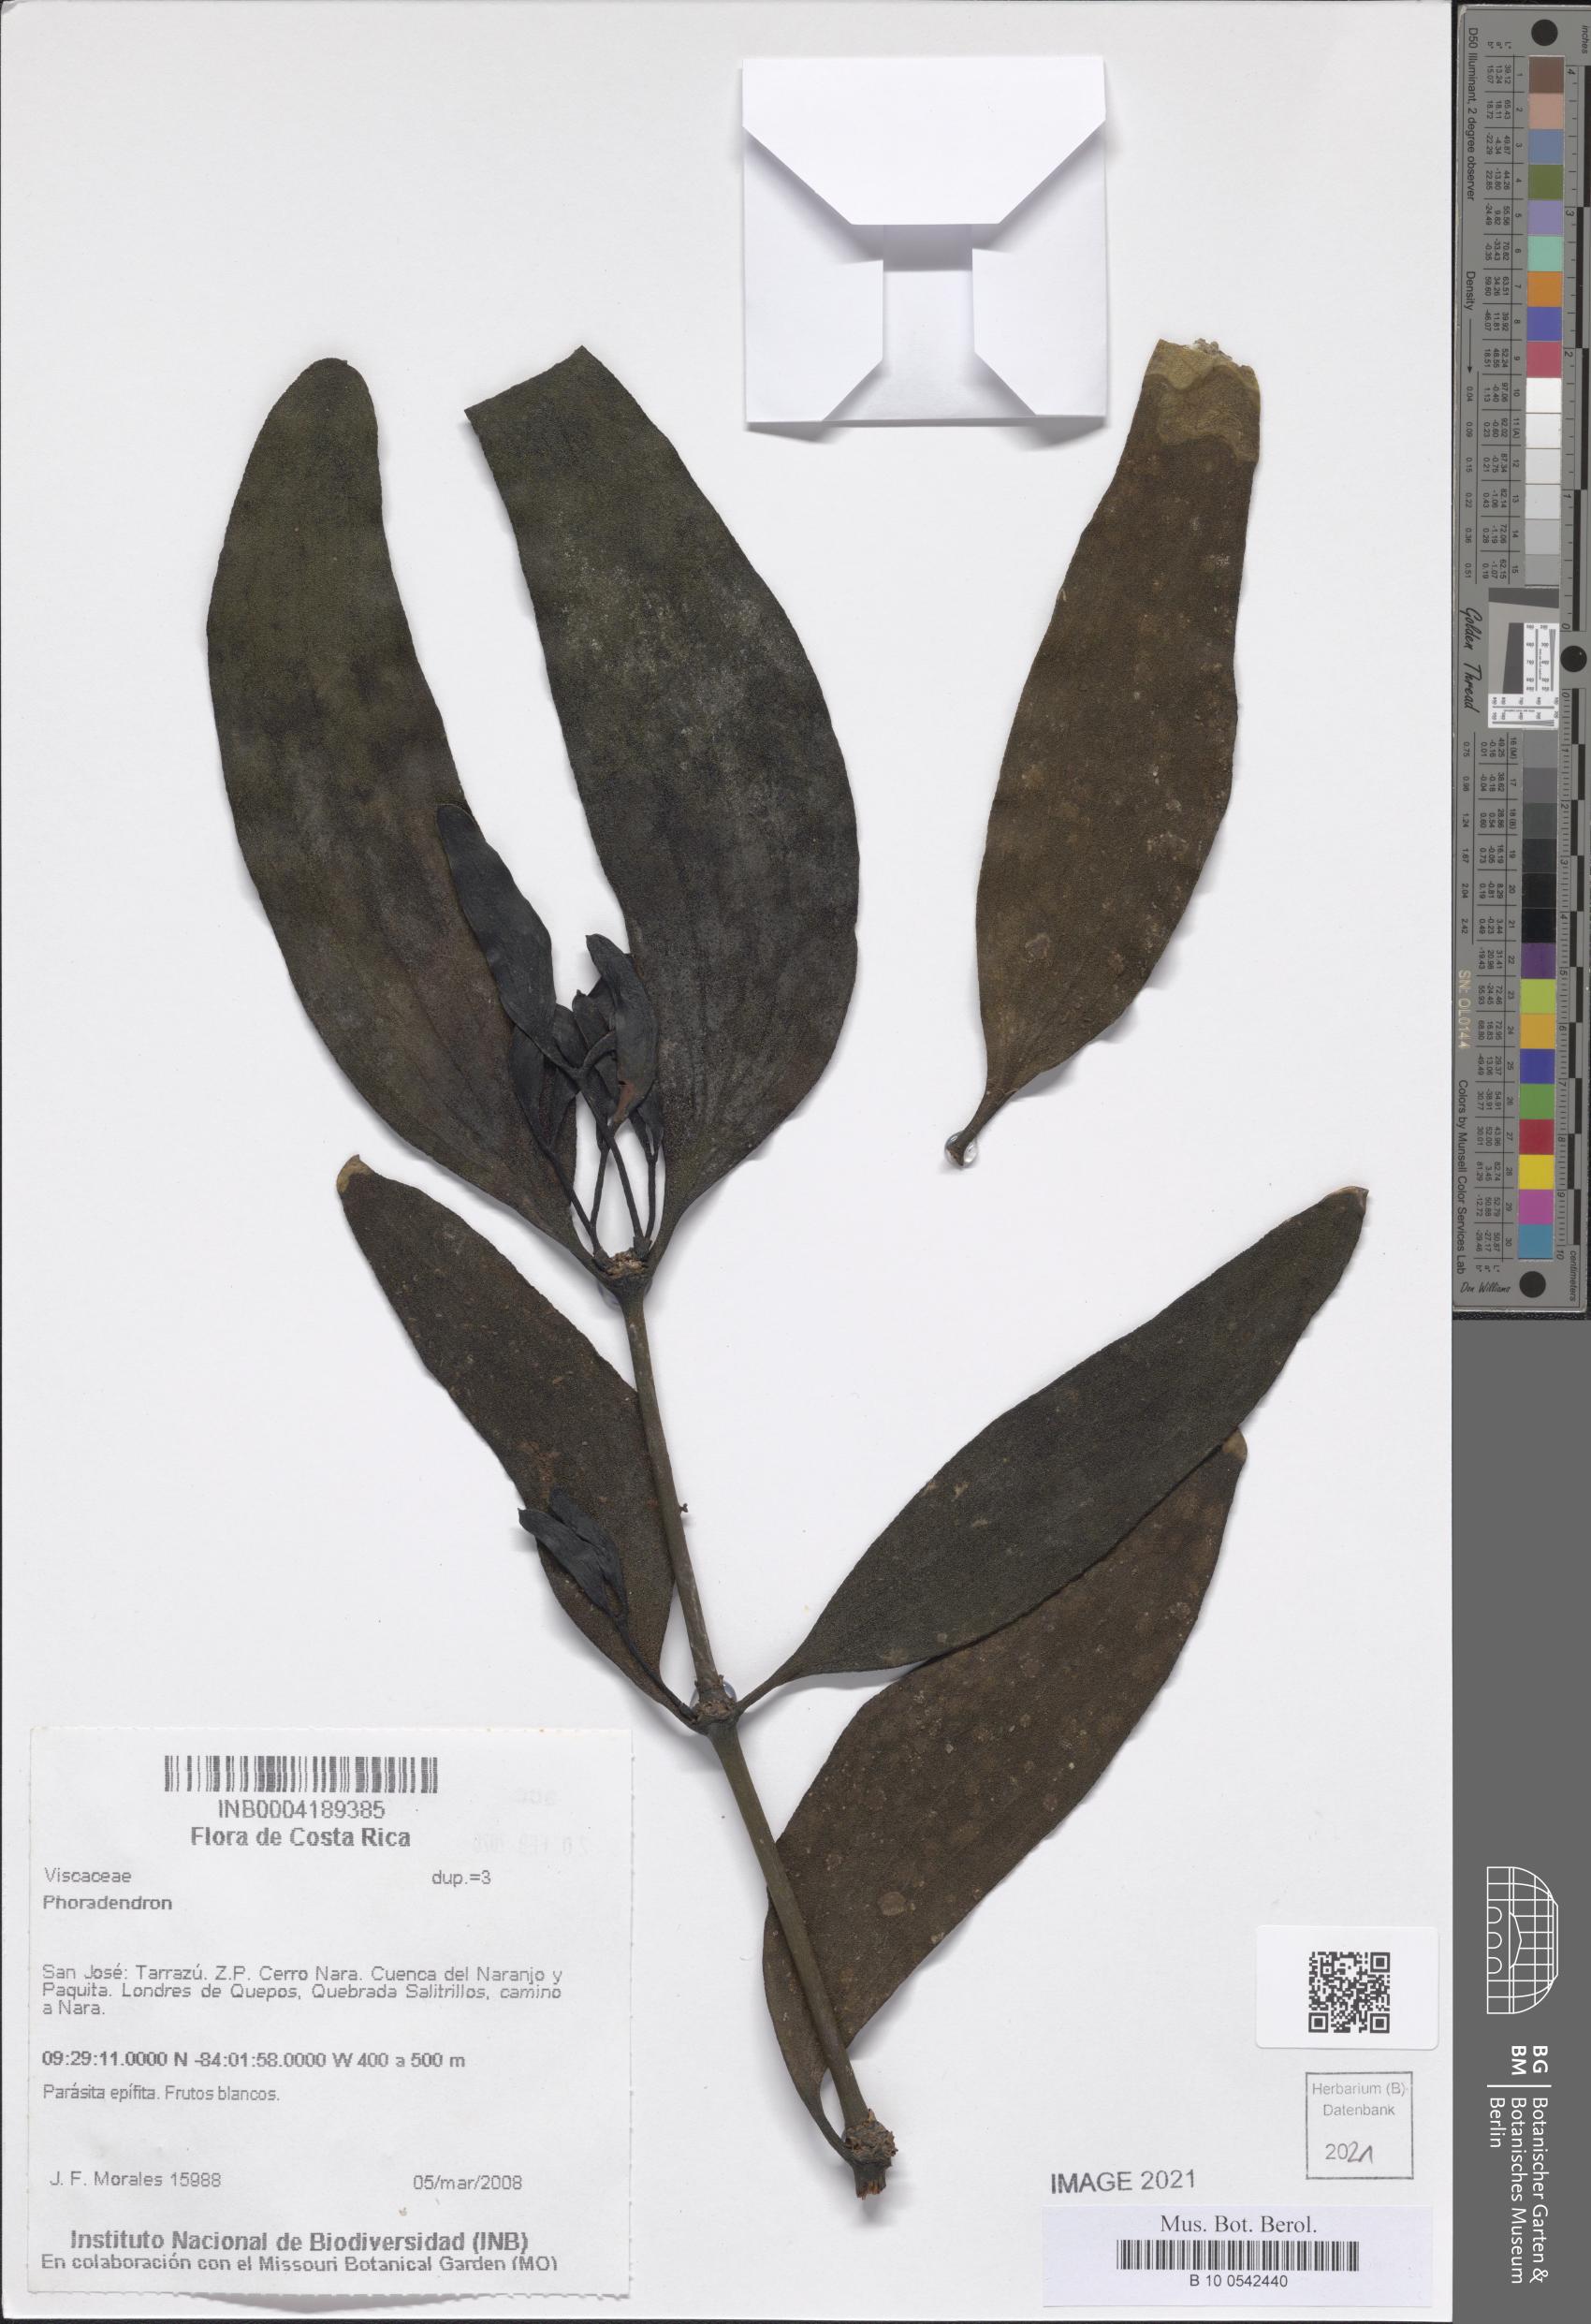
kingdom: Plantae
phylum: Tracheophyta
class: Magnoliopsida
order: Santalales
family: Viscaceae
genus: Phoradendron
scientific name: Phoradendron
